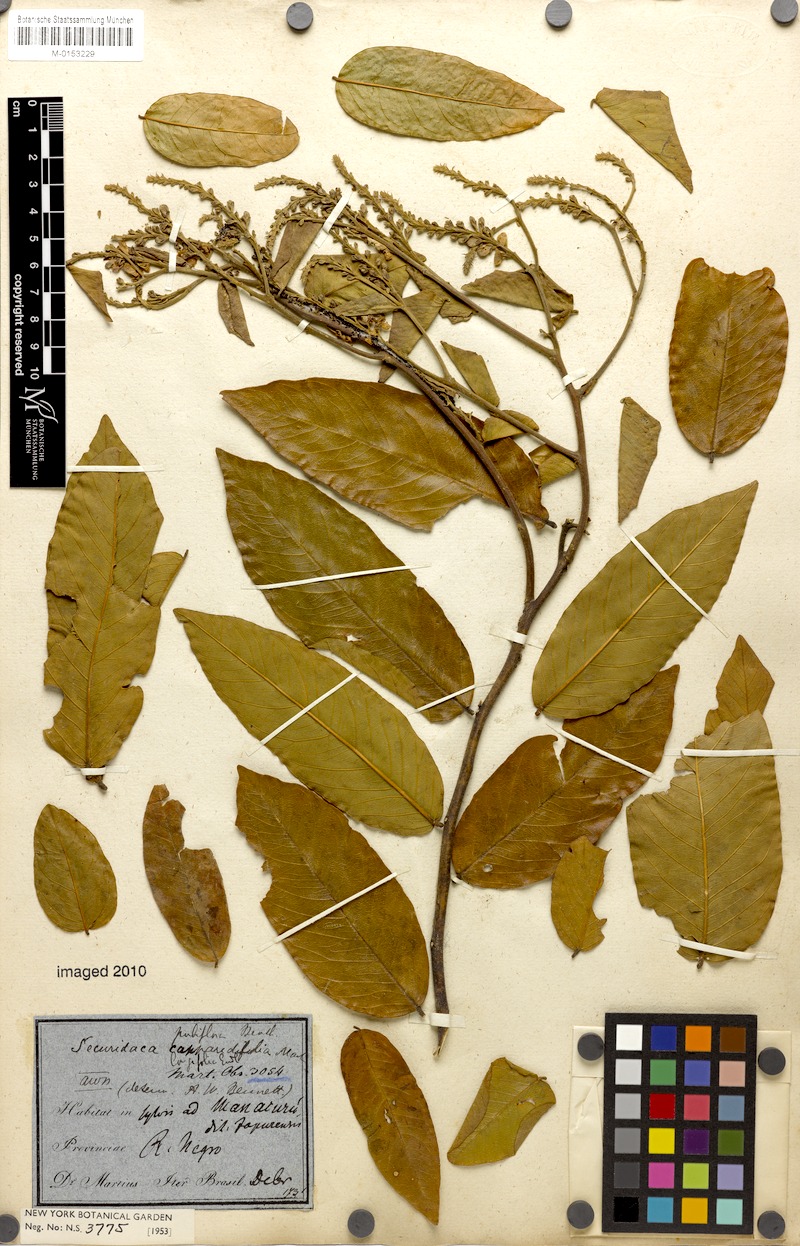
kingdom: Plantae
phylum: Tracheophyta
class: Magnoliopsida
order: Fabales
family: Polygalaceae
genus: Securidaca
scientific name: Securidaca longifolia
